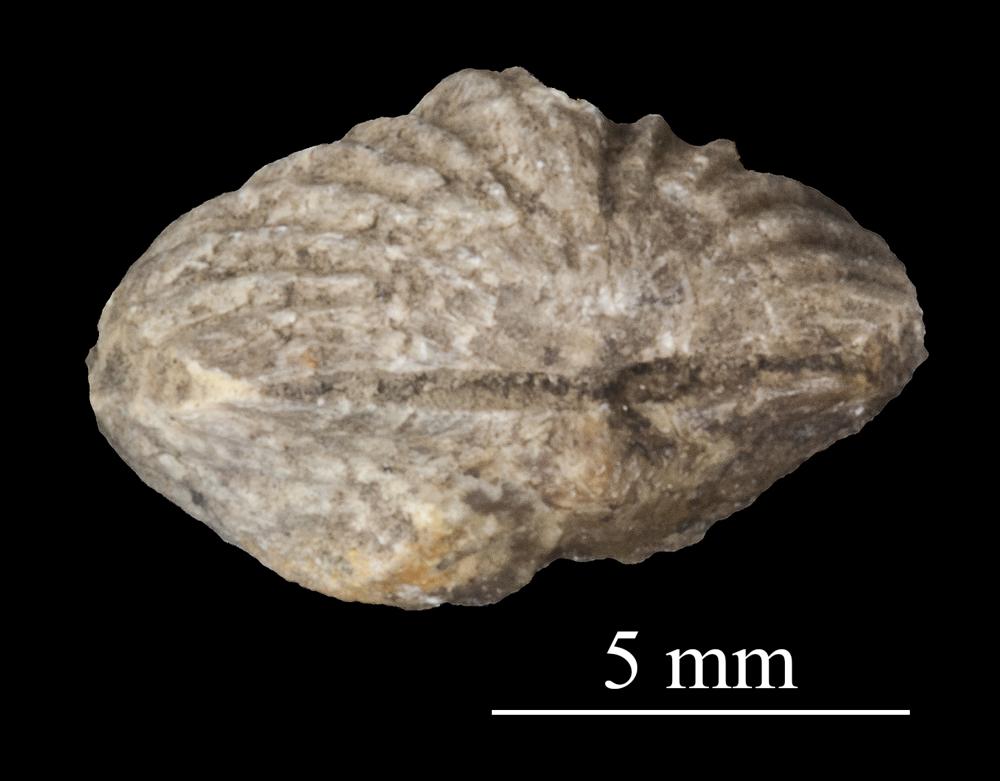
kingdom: Animalia
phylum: Brachiopoda
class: Rhynchonellata
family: Plectorthidae
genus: Platystrophia
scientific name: Platystrophia dentata
